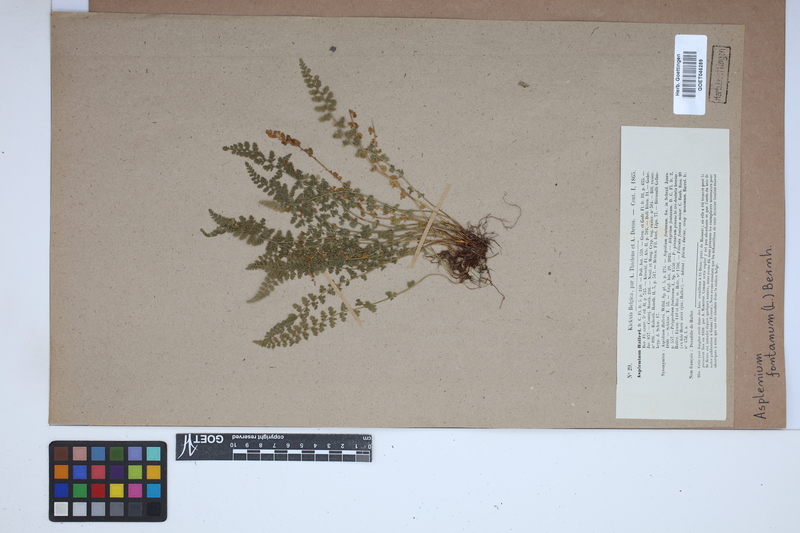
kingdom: Plantae
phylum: Tracheophyta
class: Polypodiopsida
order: Polypodiales
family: Aspleniaceae
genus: Asplenium
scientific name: Asplenium fontanum
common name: Fountain spleenwort
